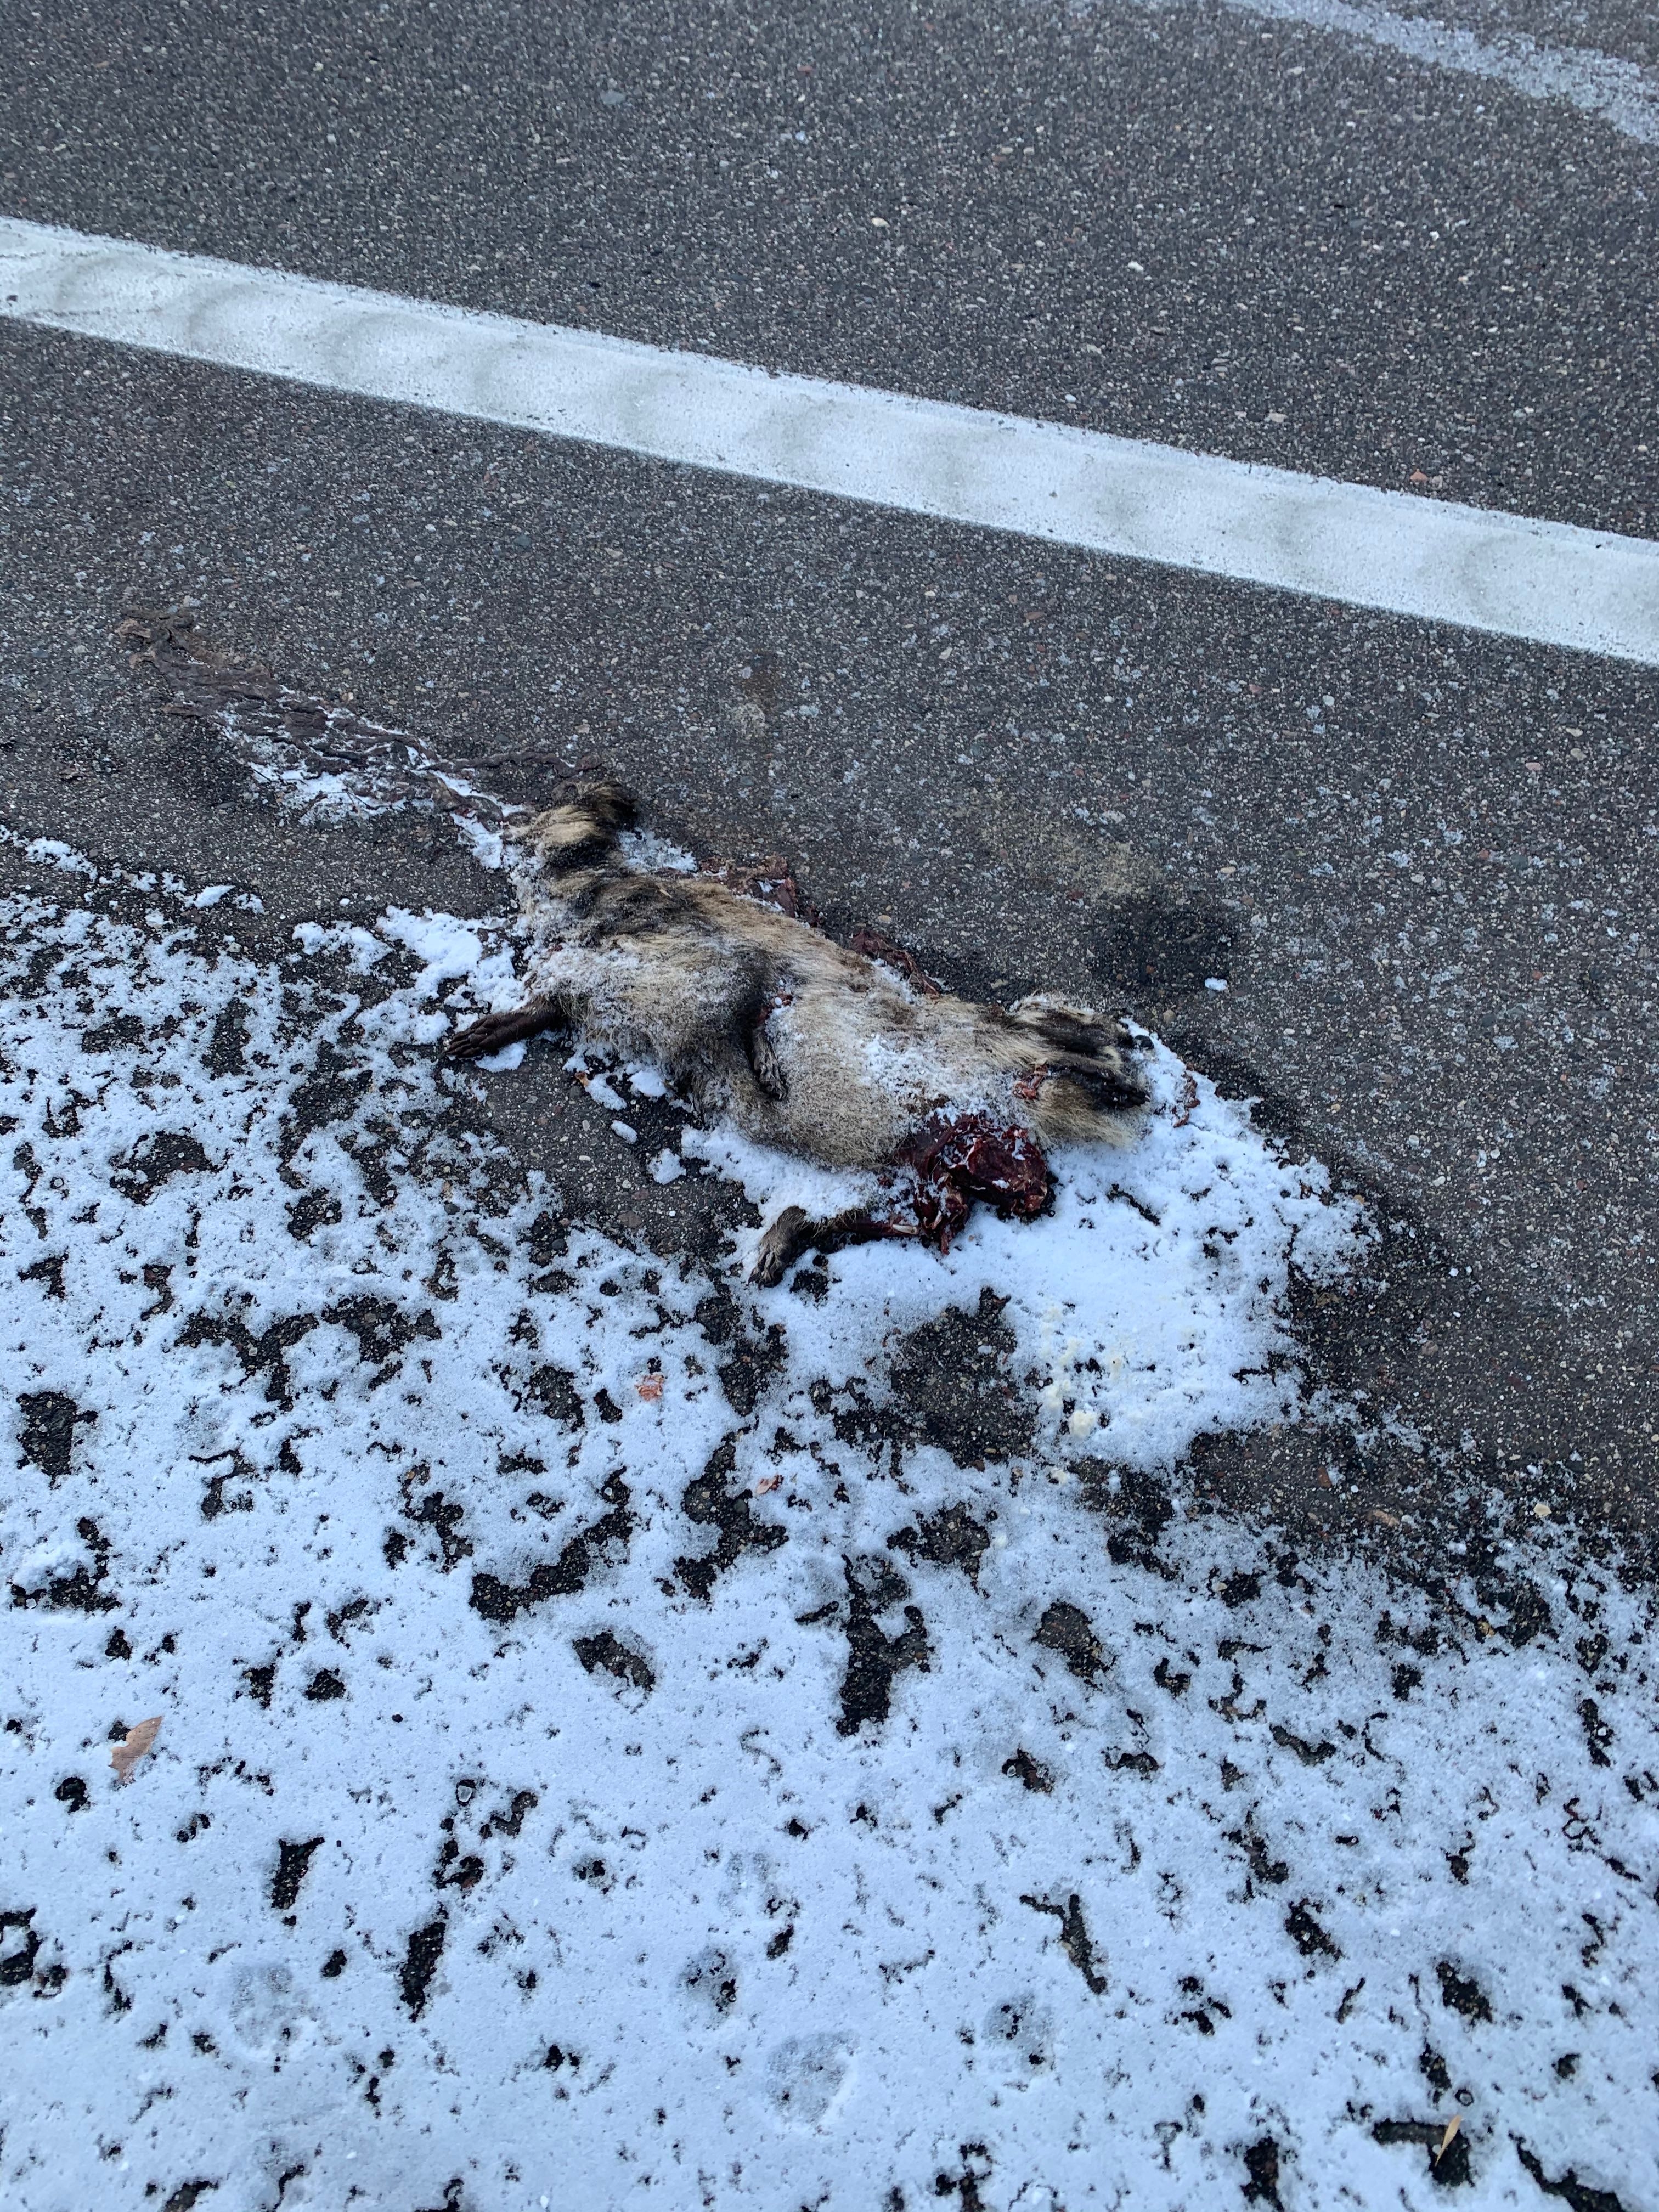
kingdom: Animalia
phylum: Chordata
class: Mammalia
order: Carnivora
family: Procyonidae
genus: Procyon
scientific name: Procyon lotor
